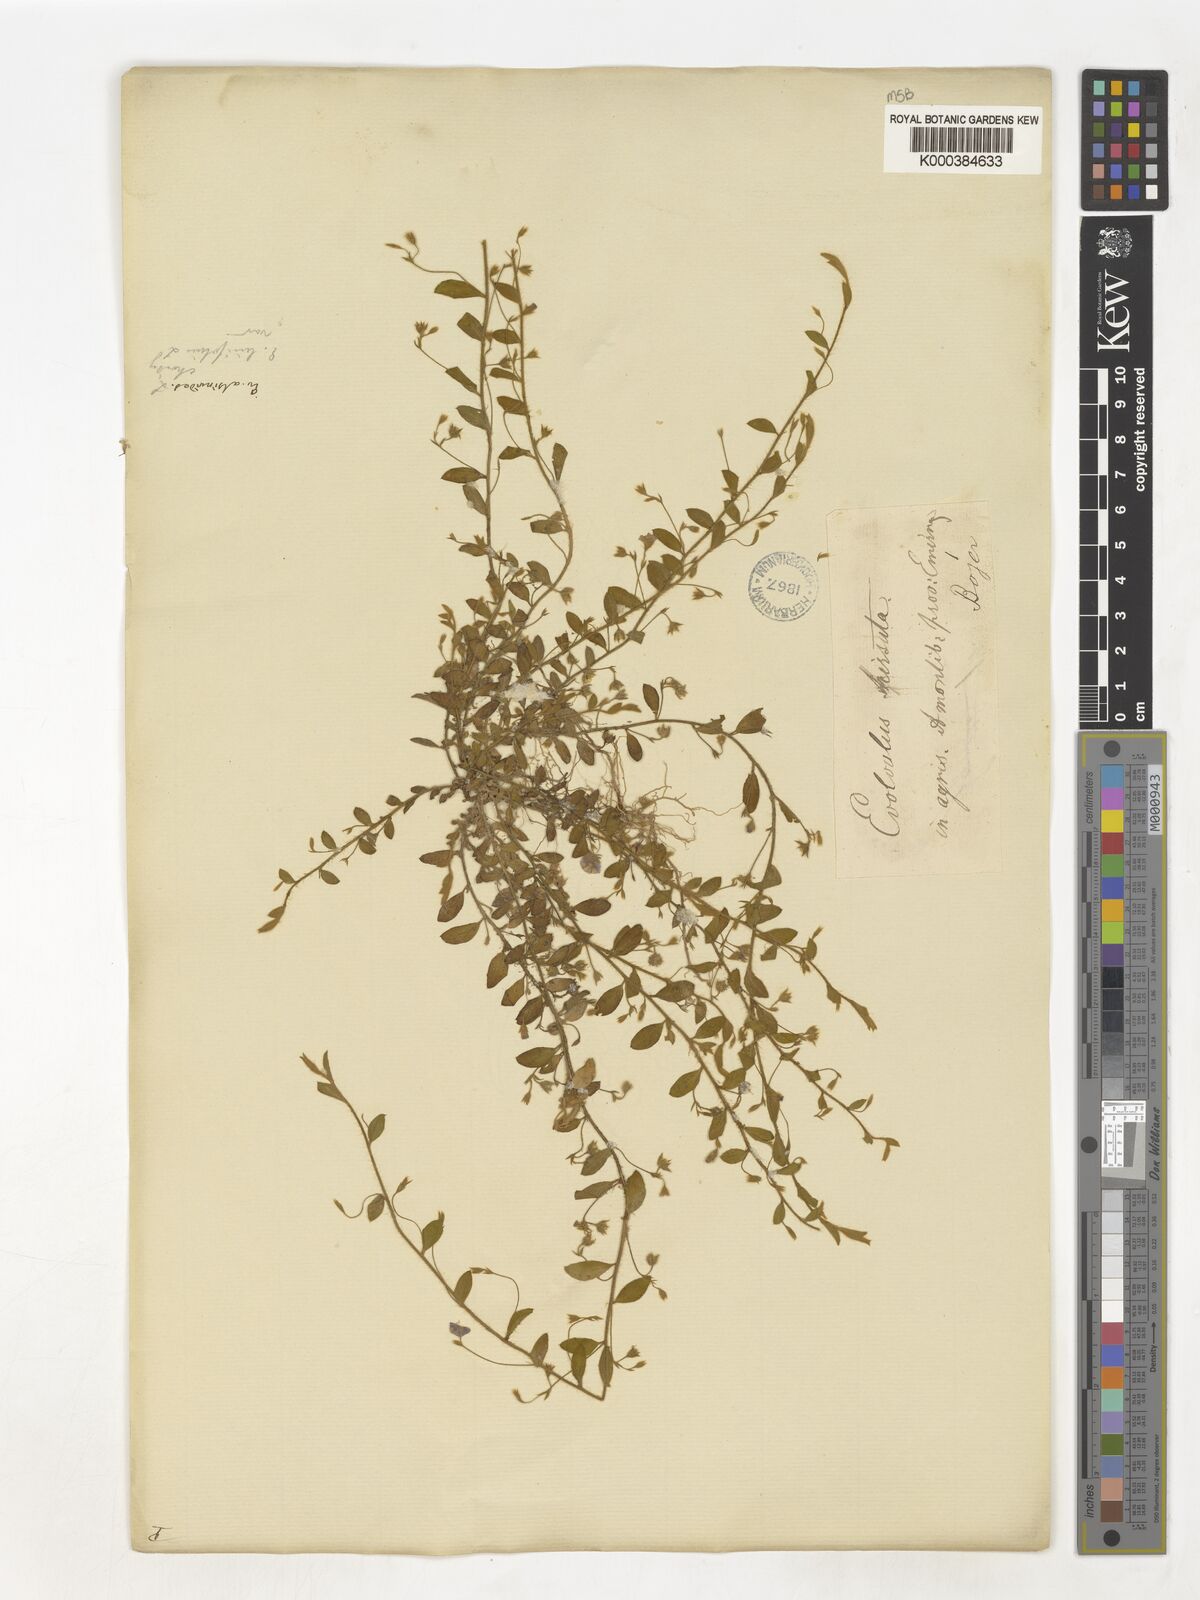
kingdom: Plantae
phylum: Tracheophyta
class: Magnoliopsida
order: Solanales
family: Convolvulaceae
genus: Evolvulus
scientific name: Evolvulus alsinoides
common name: Slender dwarf morning-glory
